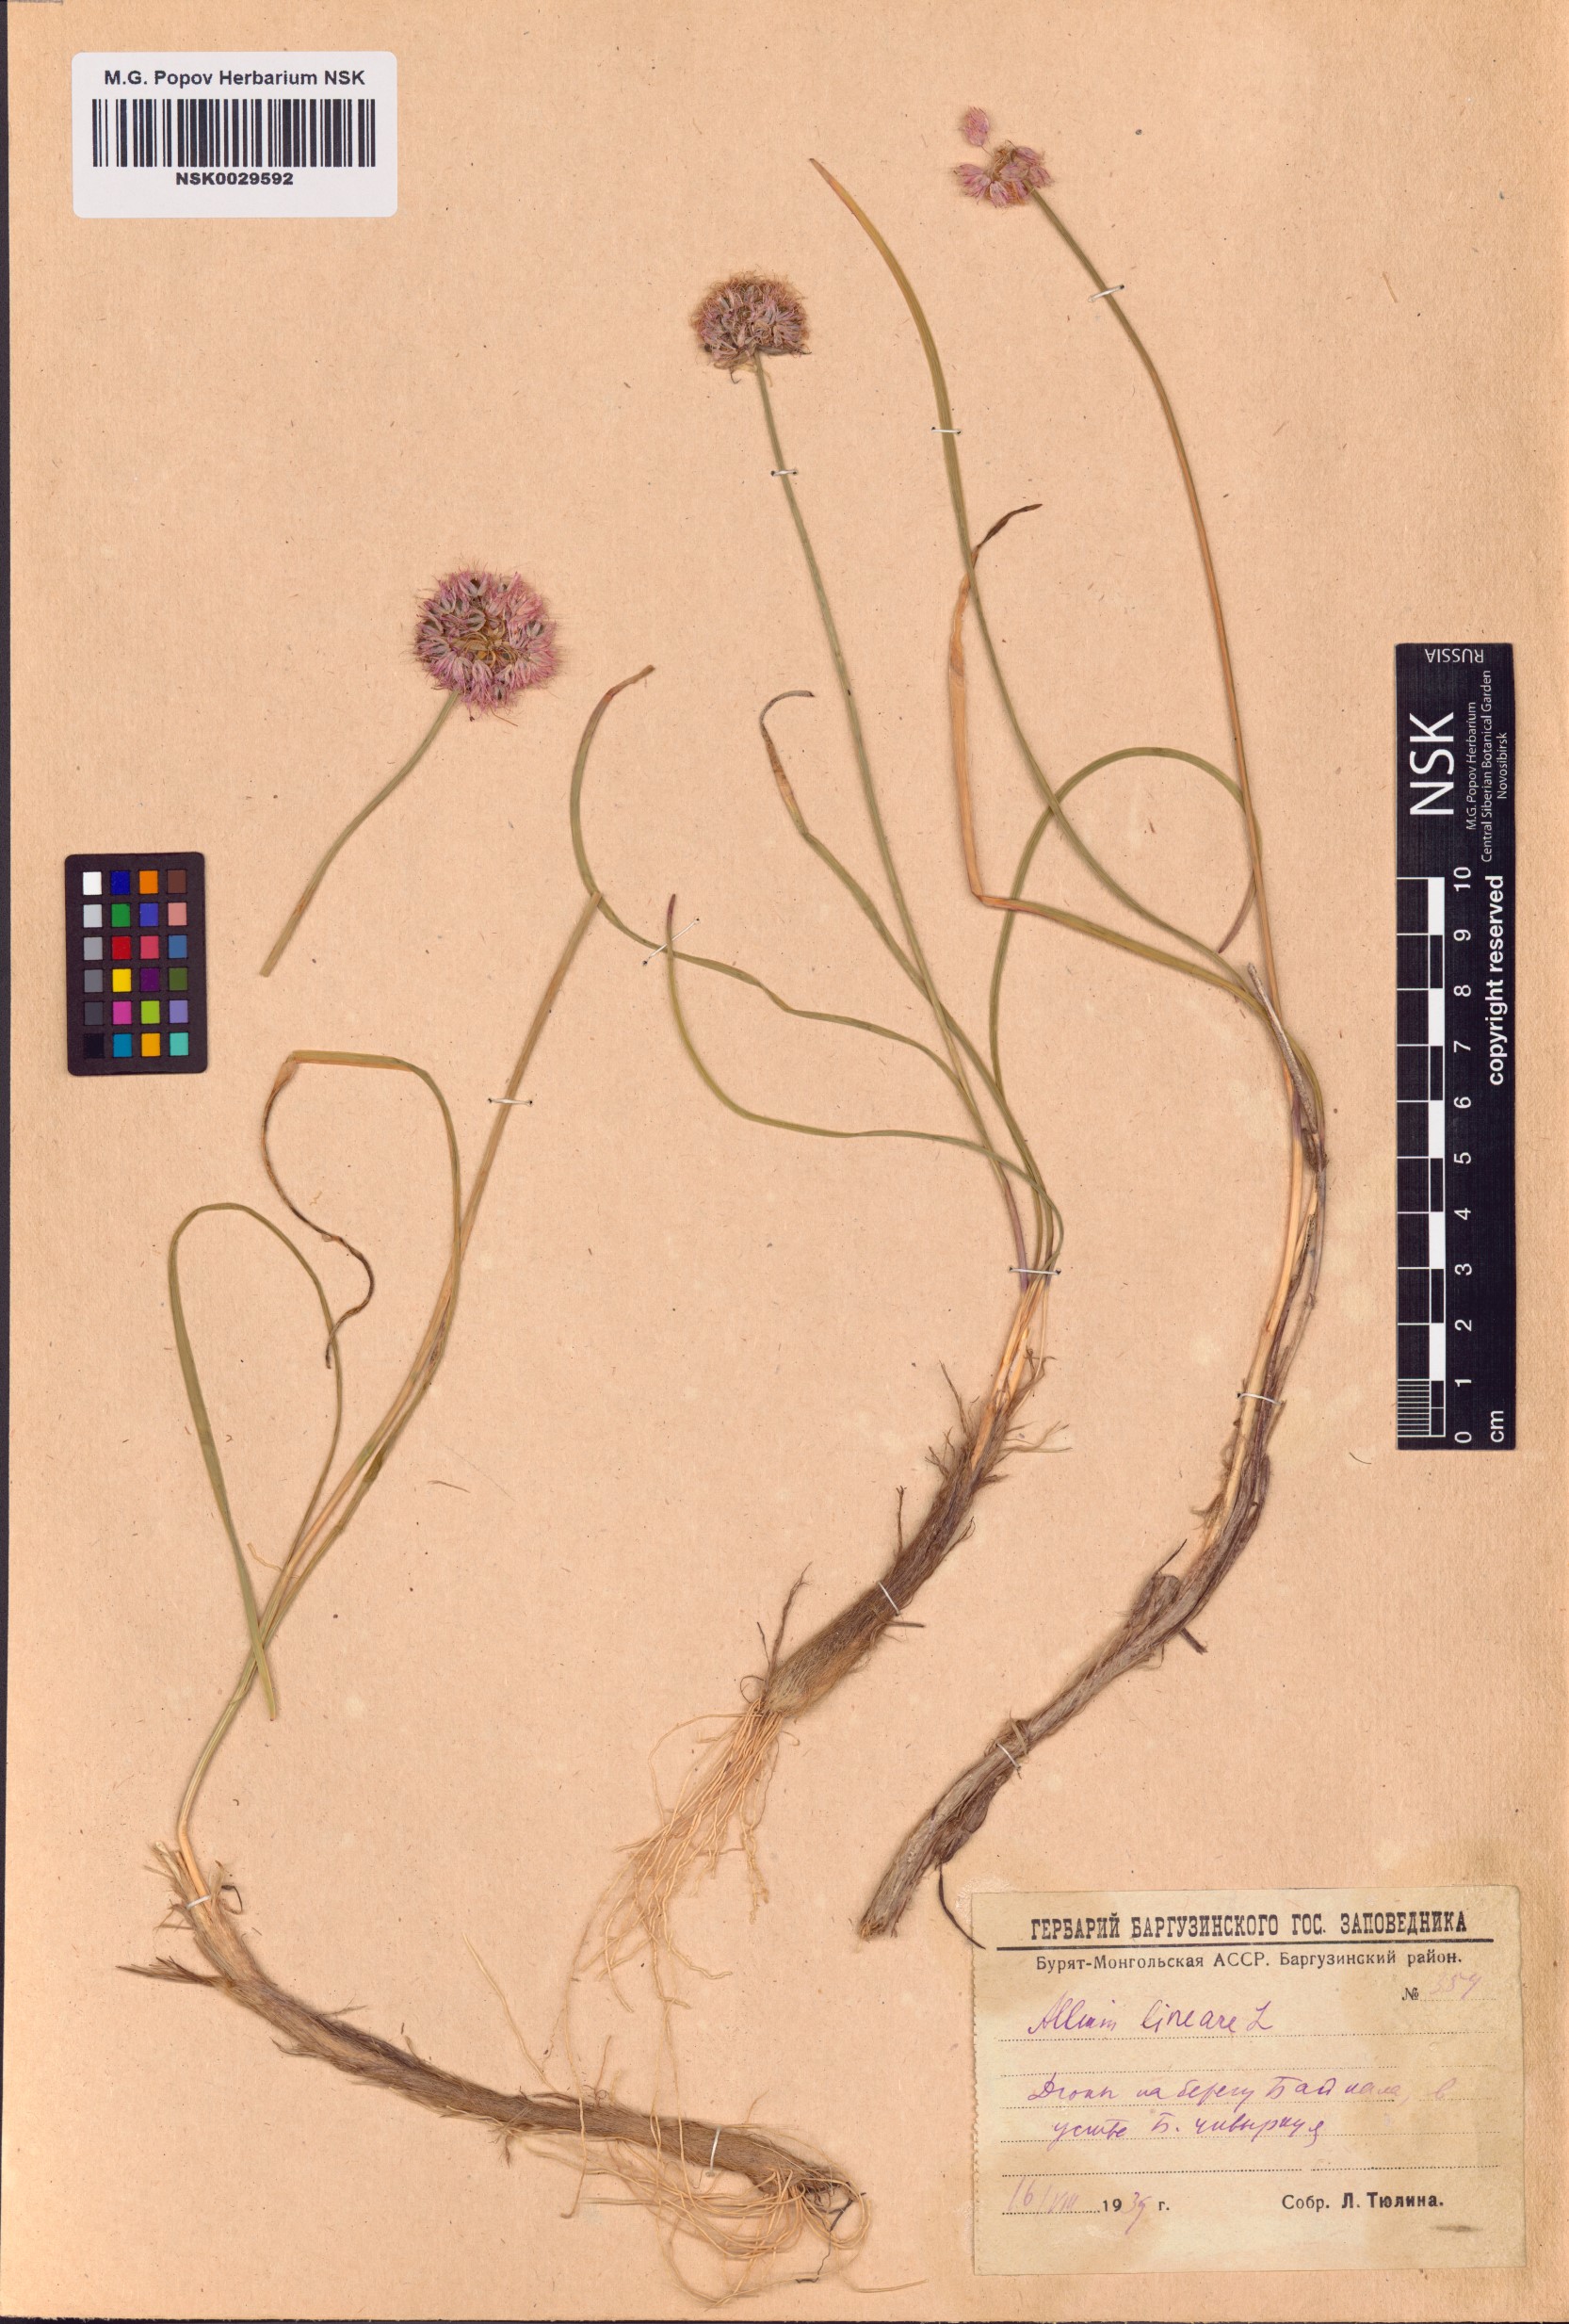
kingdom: Plantae
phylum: Tracheophyta
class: Liliopsida
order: Asparagales
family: Amaryllidaceae
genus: Allium
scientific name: Allium lineare
